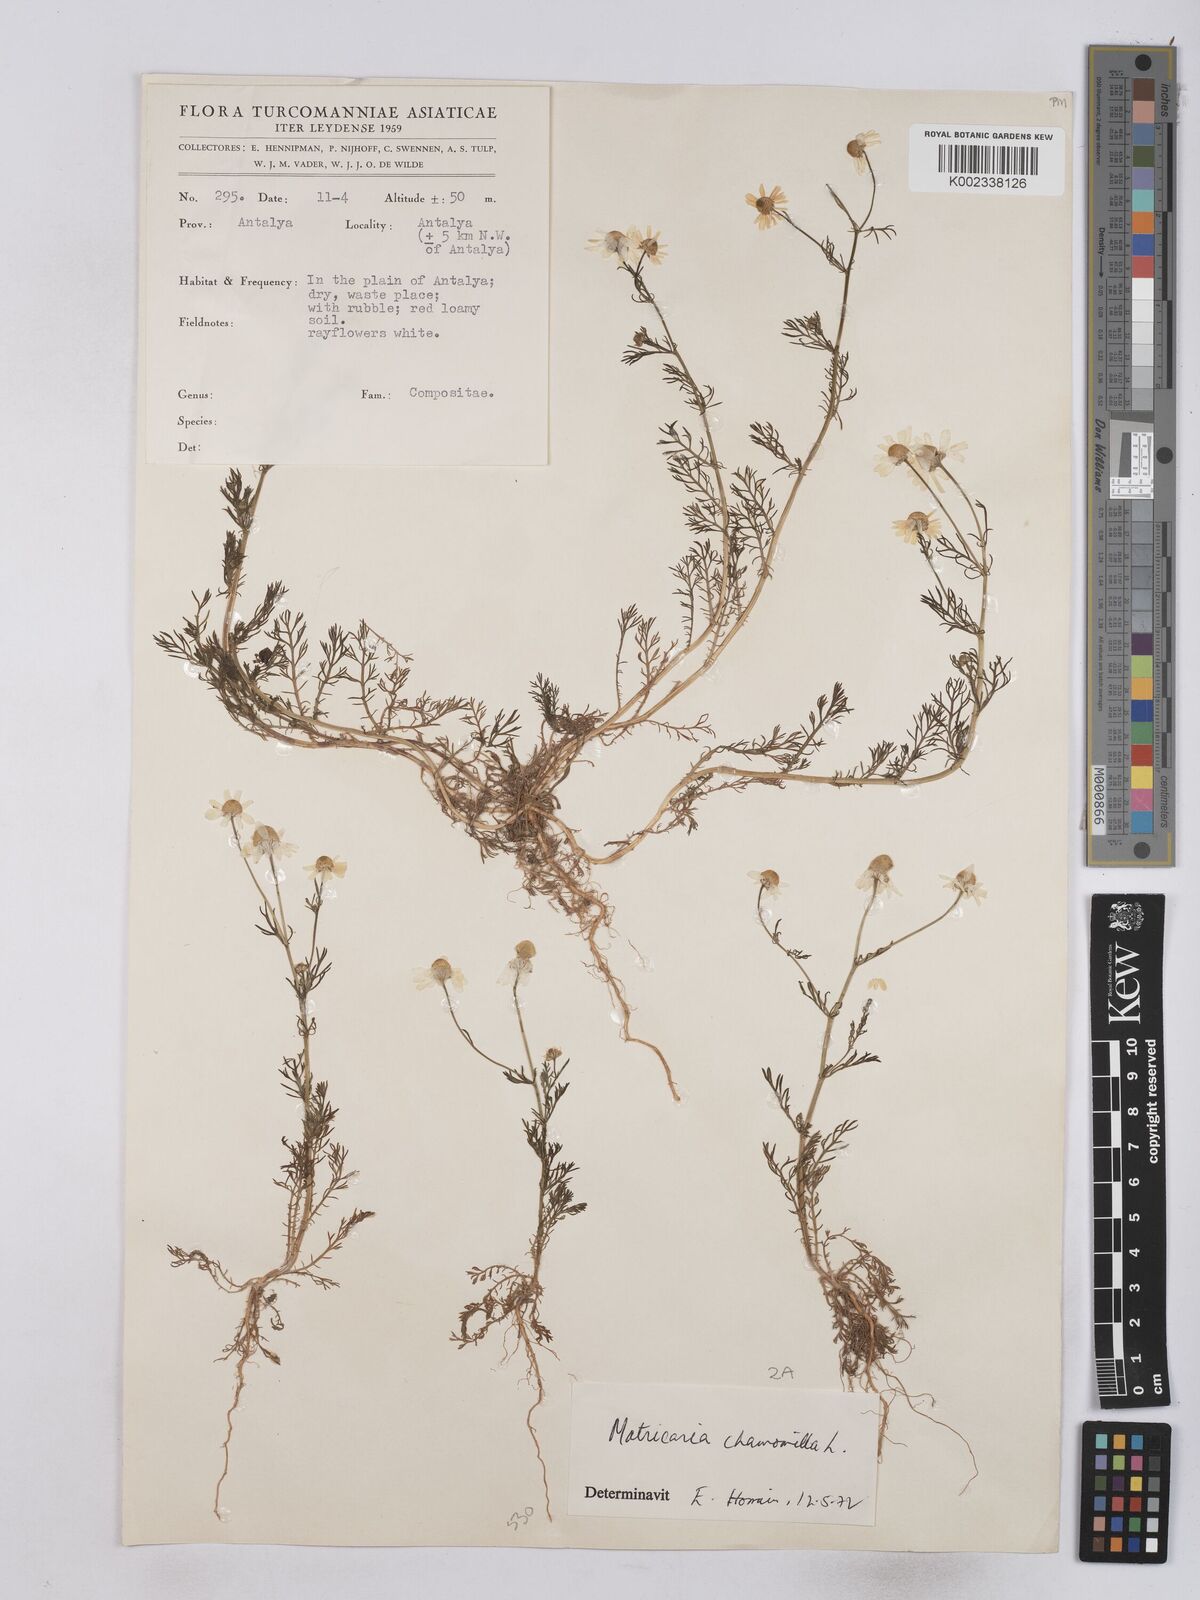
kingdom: Plantae
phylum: Tracheophyta
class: Magnoliopsida
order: Asterales
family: Asteraceae
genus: Matricaria
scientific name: Matricaria chamomilla
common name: Scented mayweed
